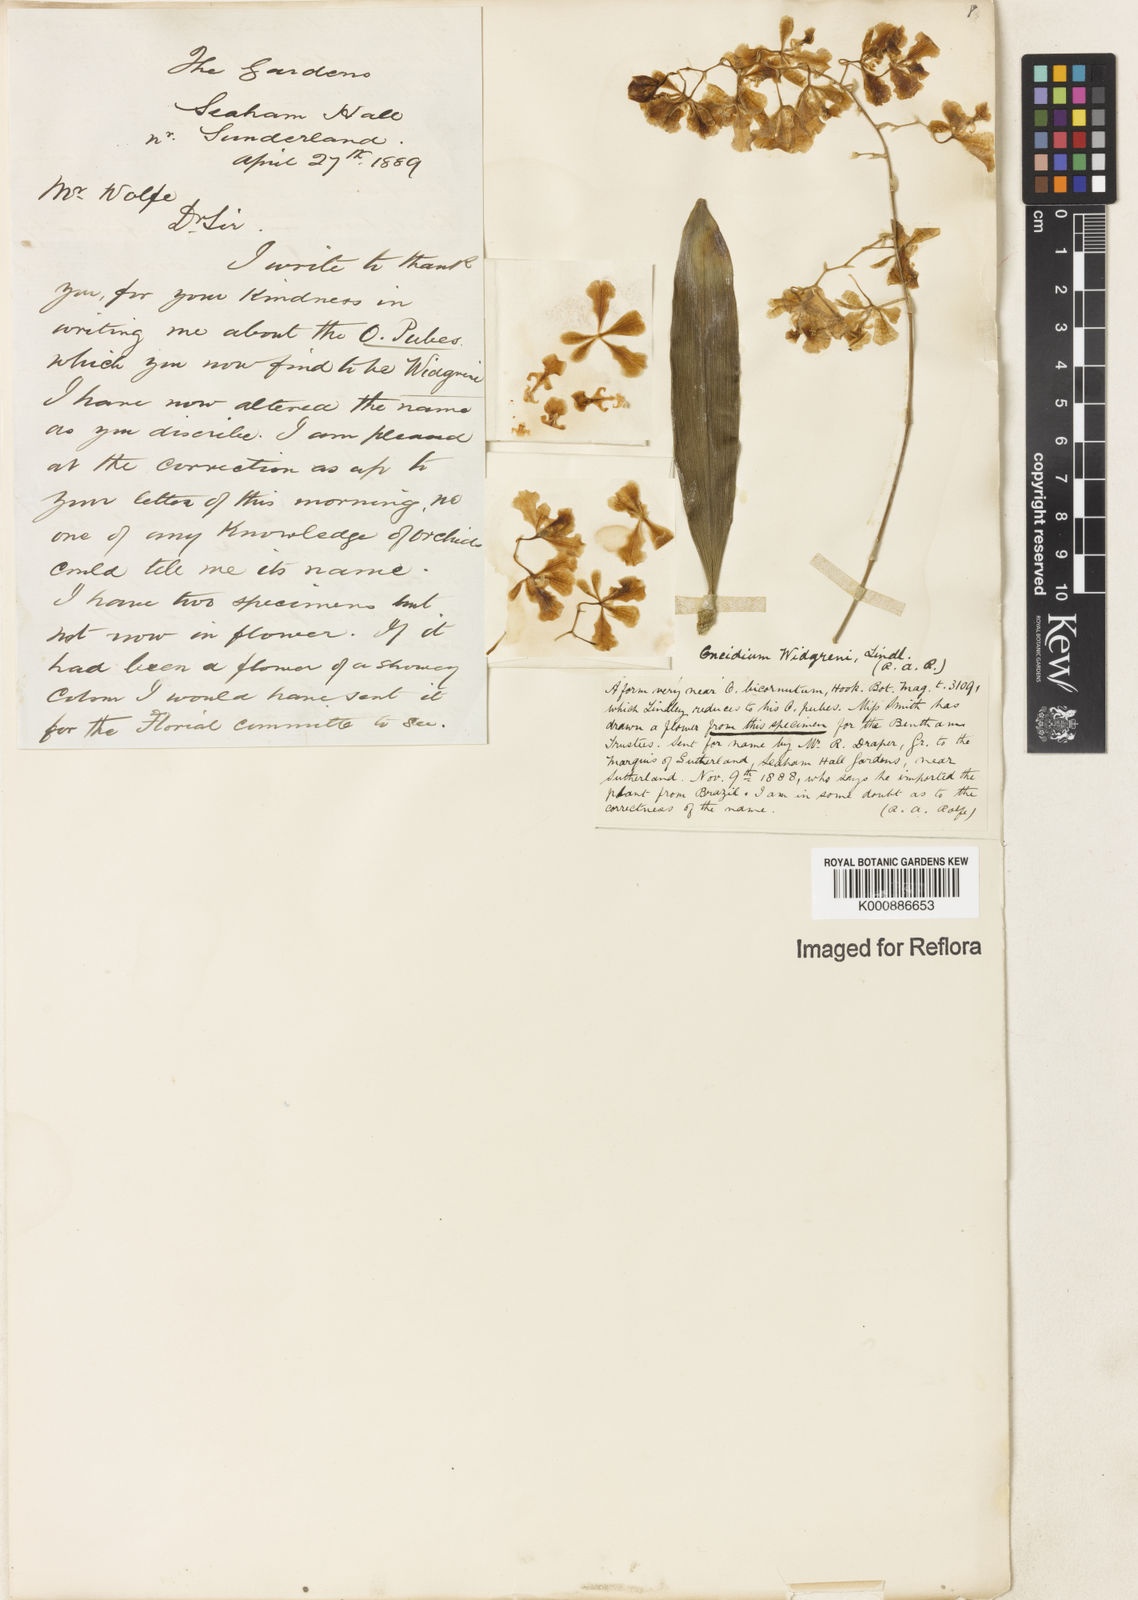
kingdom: Plantae
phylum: Tracheophyta
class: Liliopsida
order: Asparagales
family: Orchidaceae
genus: Gomesa
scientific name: Gomesa widgrenii
